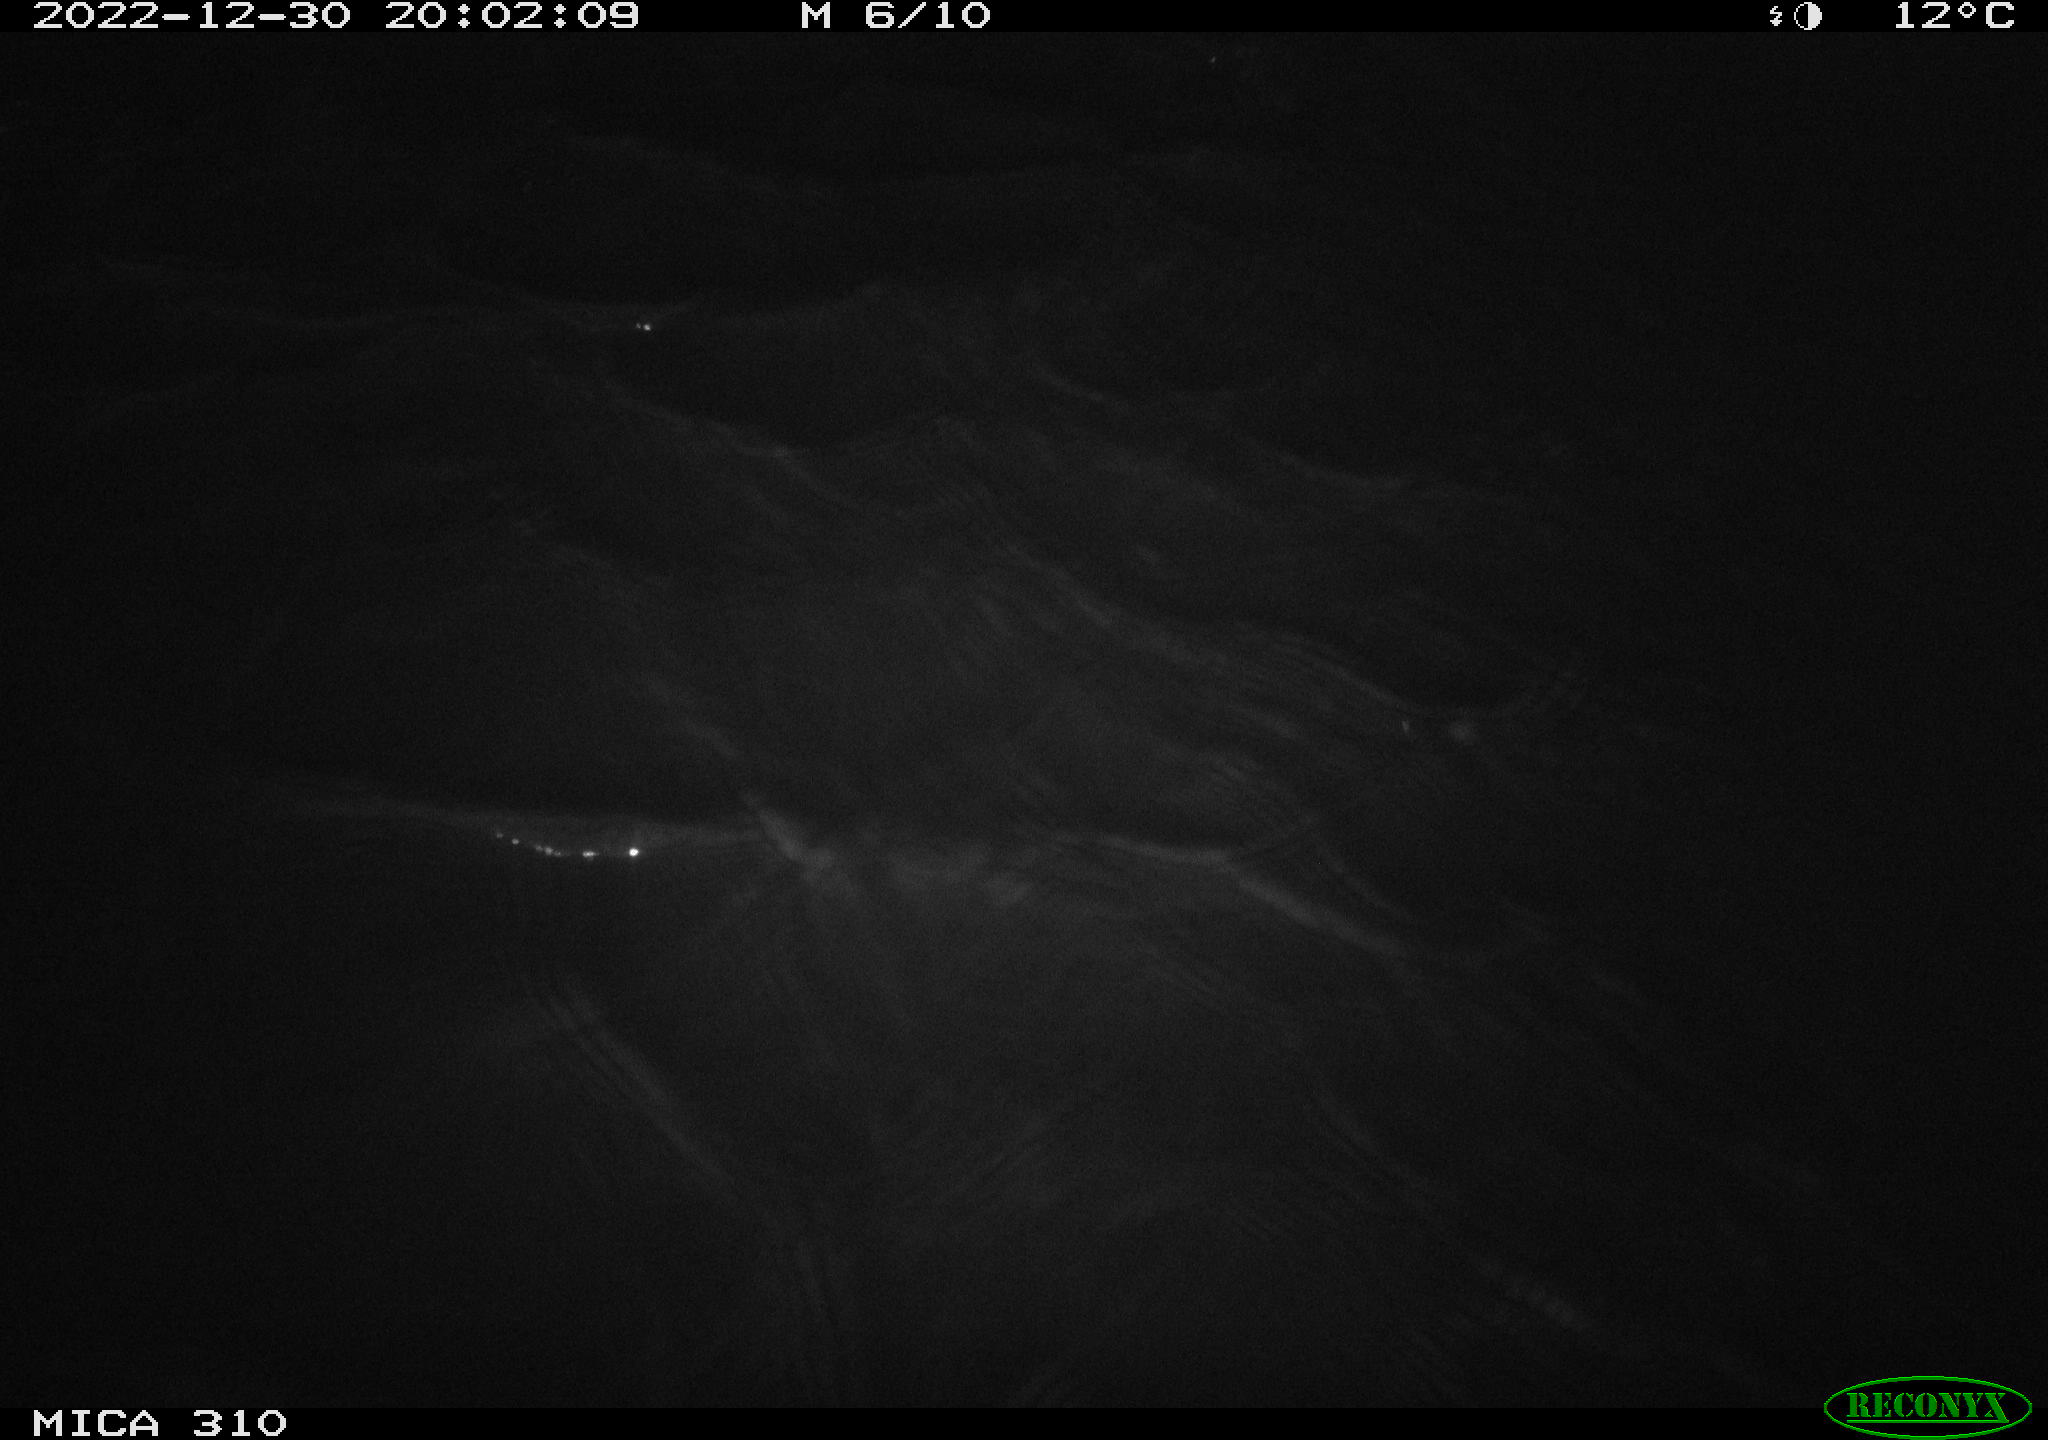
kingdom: Animalia
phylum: Chordata
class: Mammalia
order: Rodentia
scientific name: Rodentia
